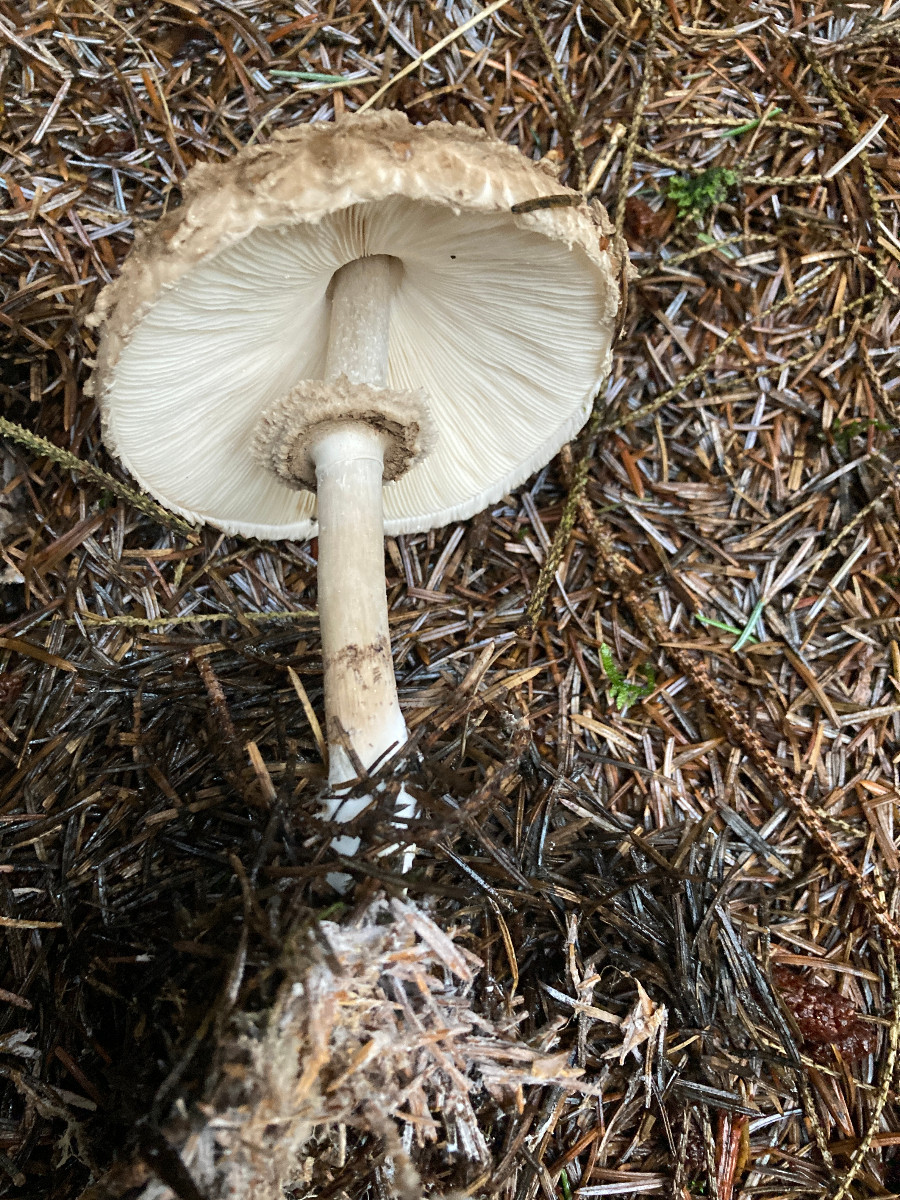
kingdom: Fungi
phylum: Basidiomycota
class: Agaricomycetes
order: Agaricales
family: Agaricaceae
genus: Chlorophyllum
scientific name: Chlorophyllum olivieri
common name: almindelig rabarberhat
